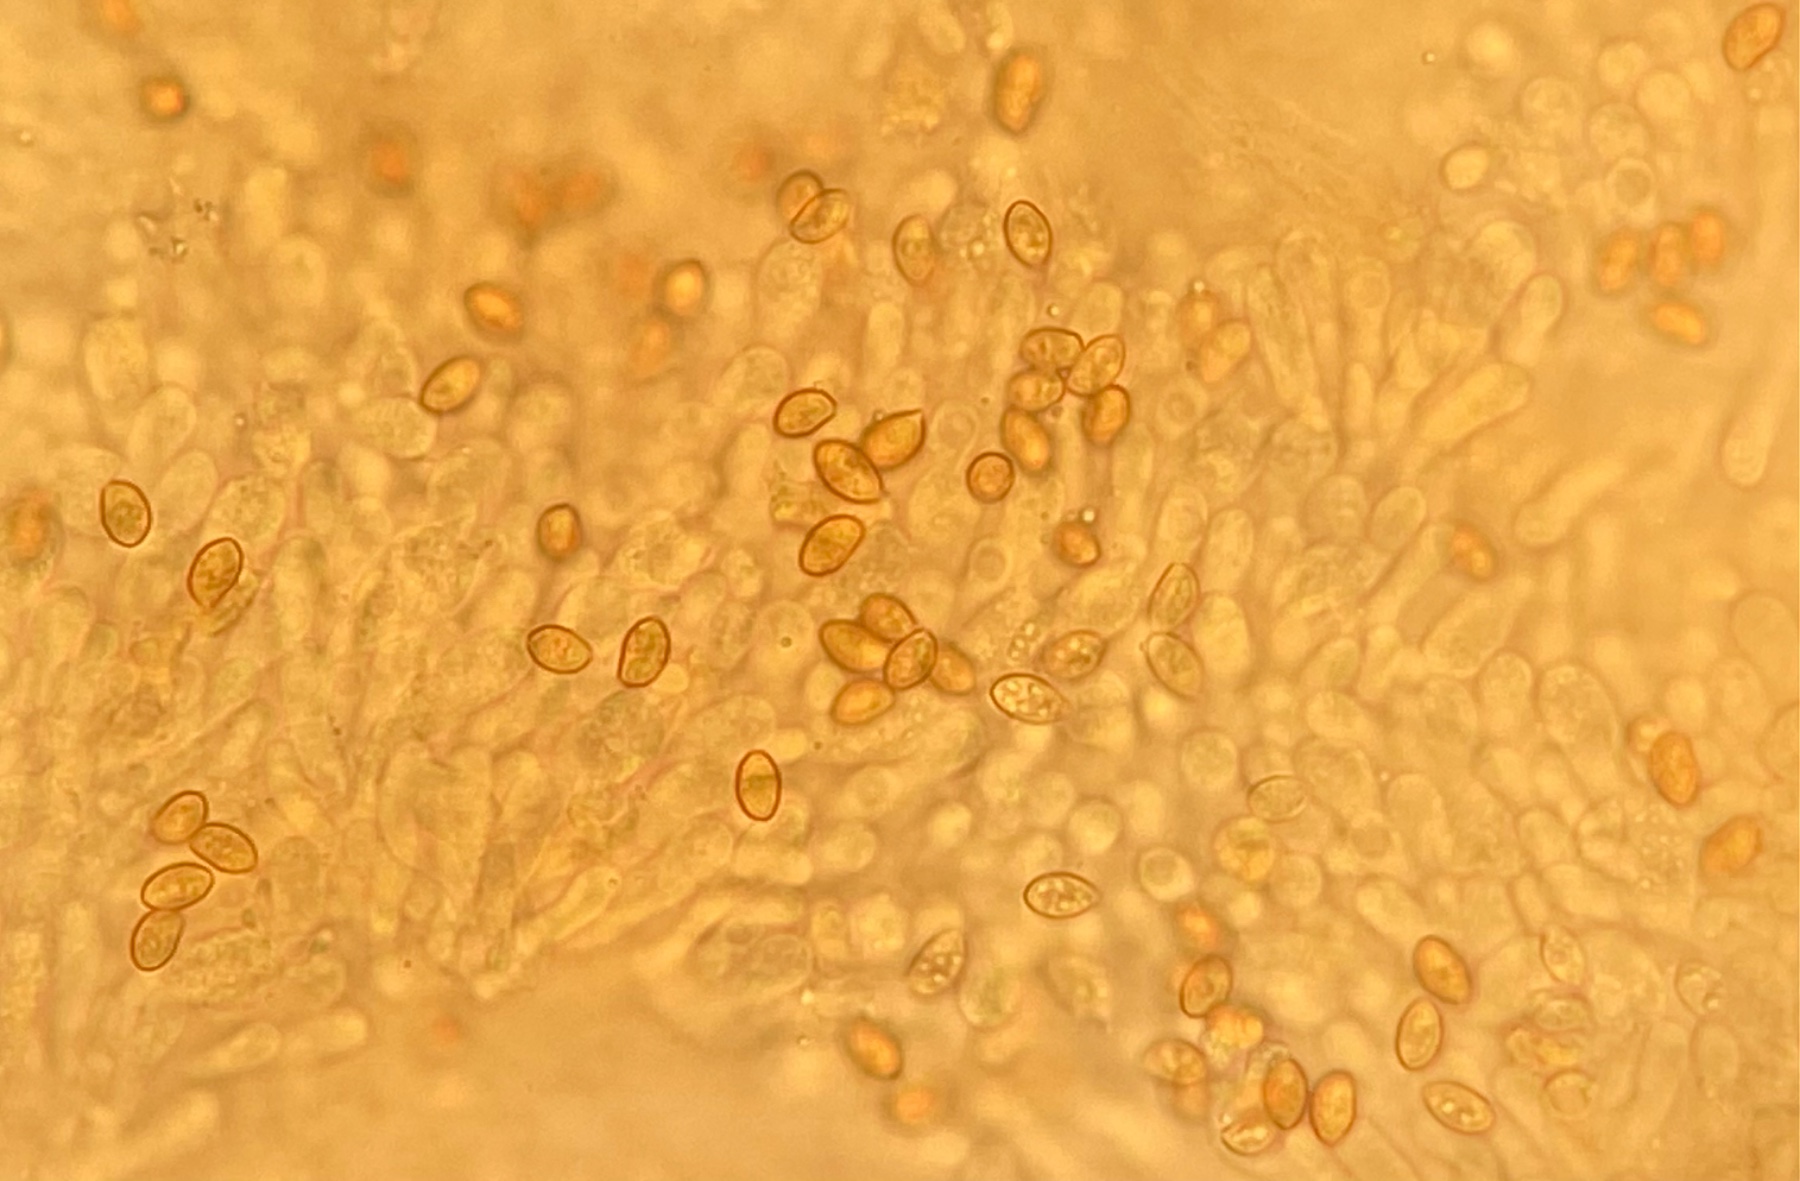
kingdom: Fungi
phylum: Basidiomycota
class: Agaricomycetes
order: Agaricales
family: Hymenogastraceae
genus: Galerina
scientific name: Galerina triscopa
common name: spidspuklet hjelmhat
